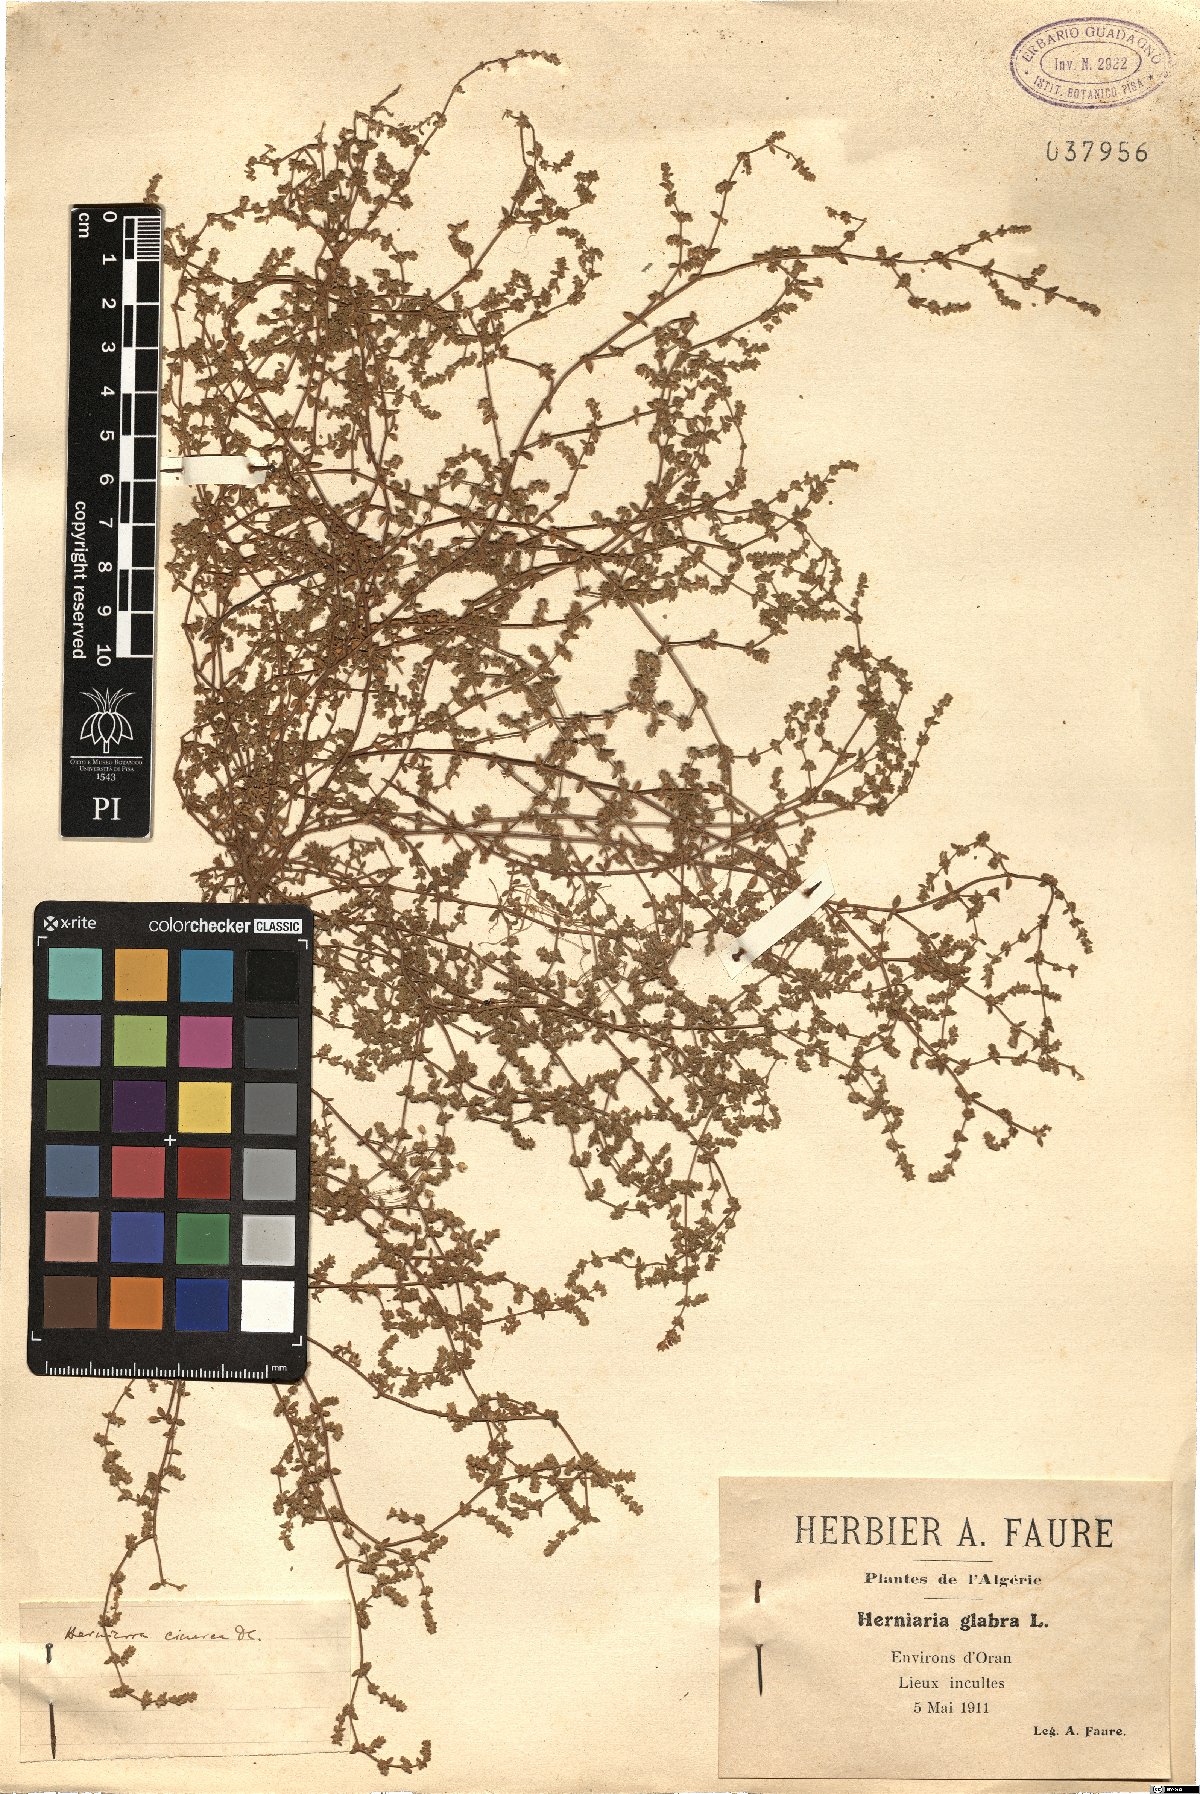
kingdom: Plantae
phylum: Tracheophyta
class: Magnoliopsida
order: Caryophyllales
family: Caryophyllaceae
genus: Herniaria
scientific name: Herniaria cinerea
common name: Hairy rupturewort
